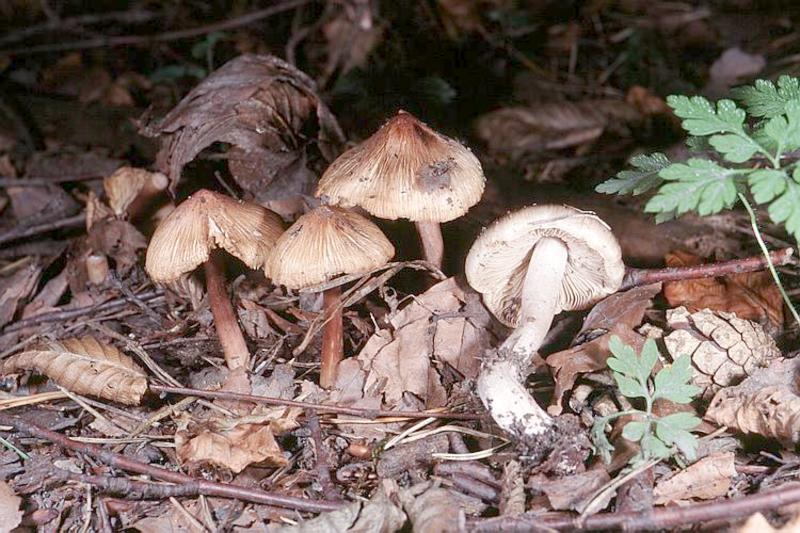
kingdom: Fungi
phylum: Basidiomycota
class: Agaricomycetes
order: Agaricales
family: Inocybaceae
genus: Pseudosperma
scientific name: Pseudosperma rimosum
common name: Split fibrecap
